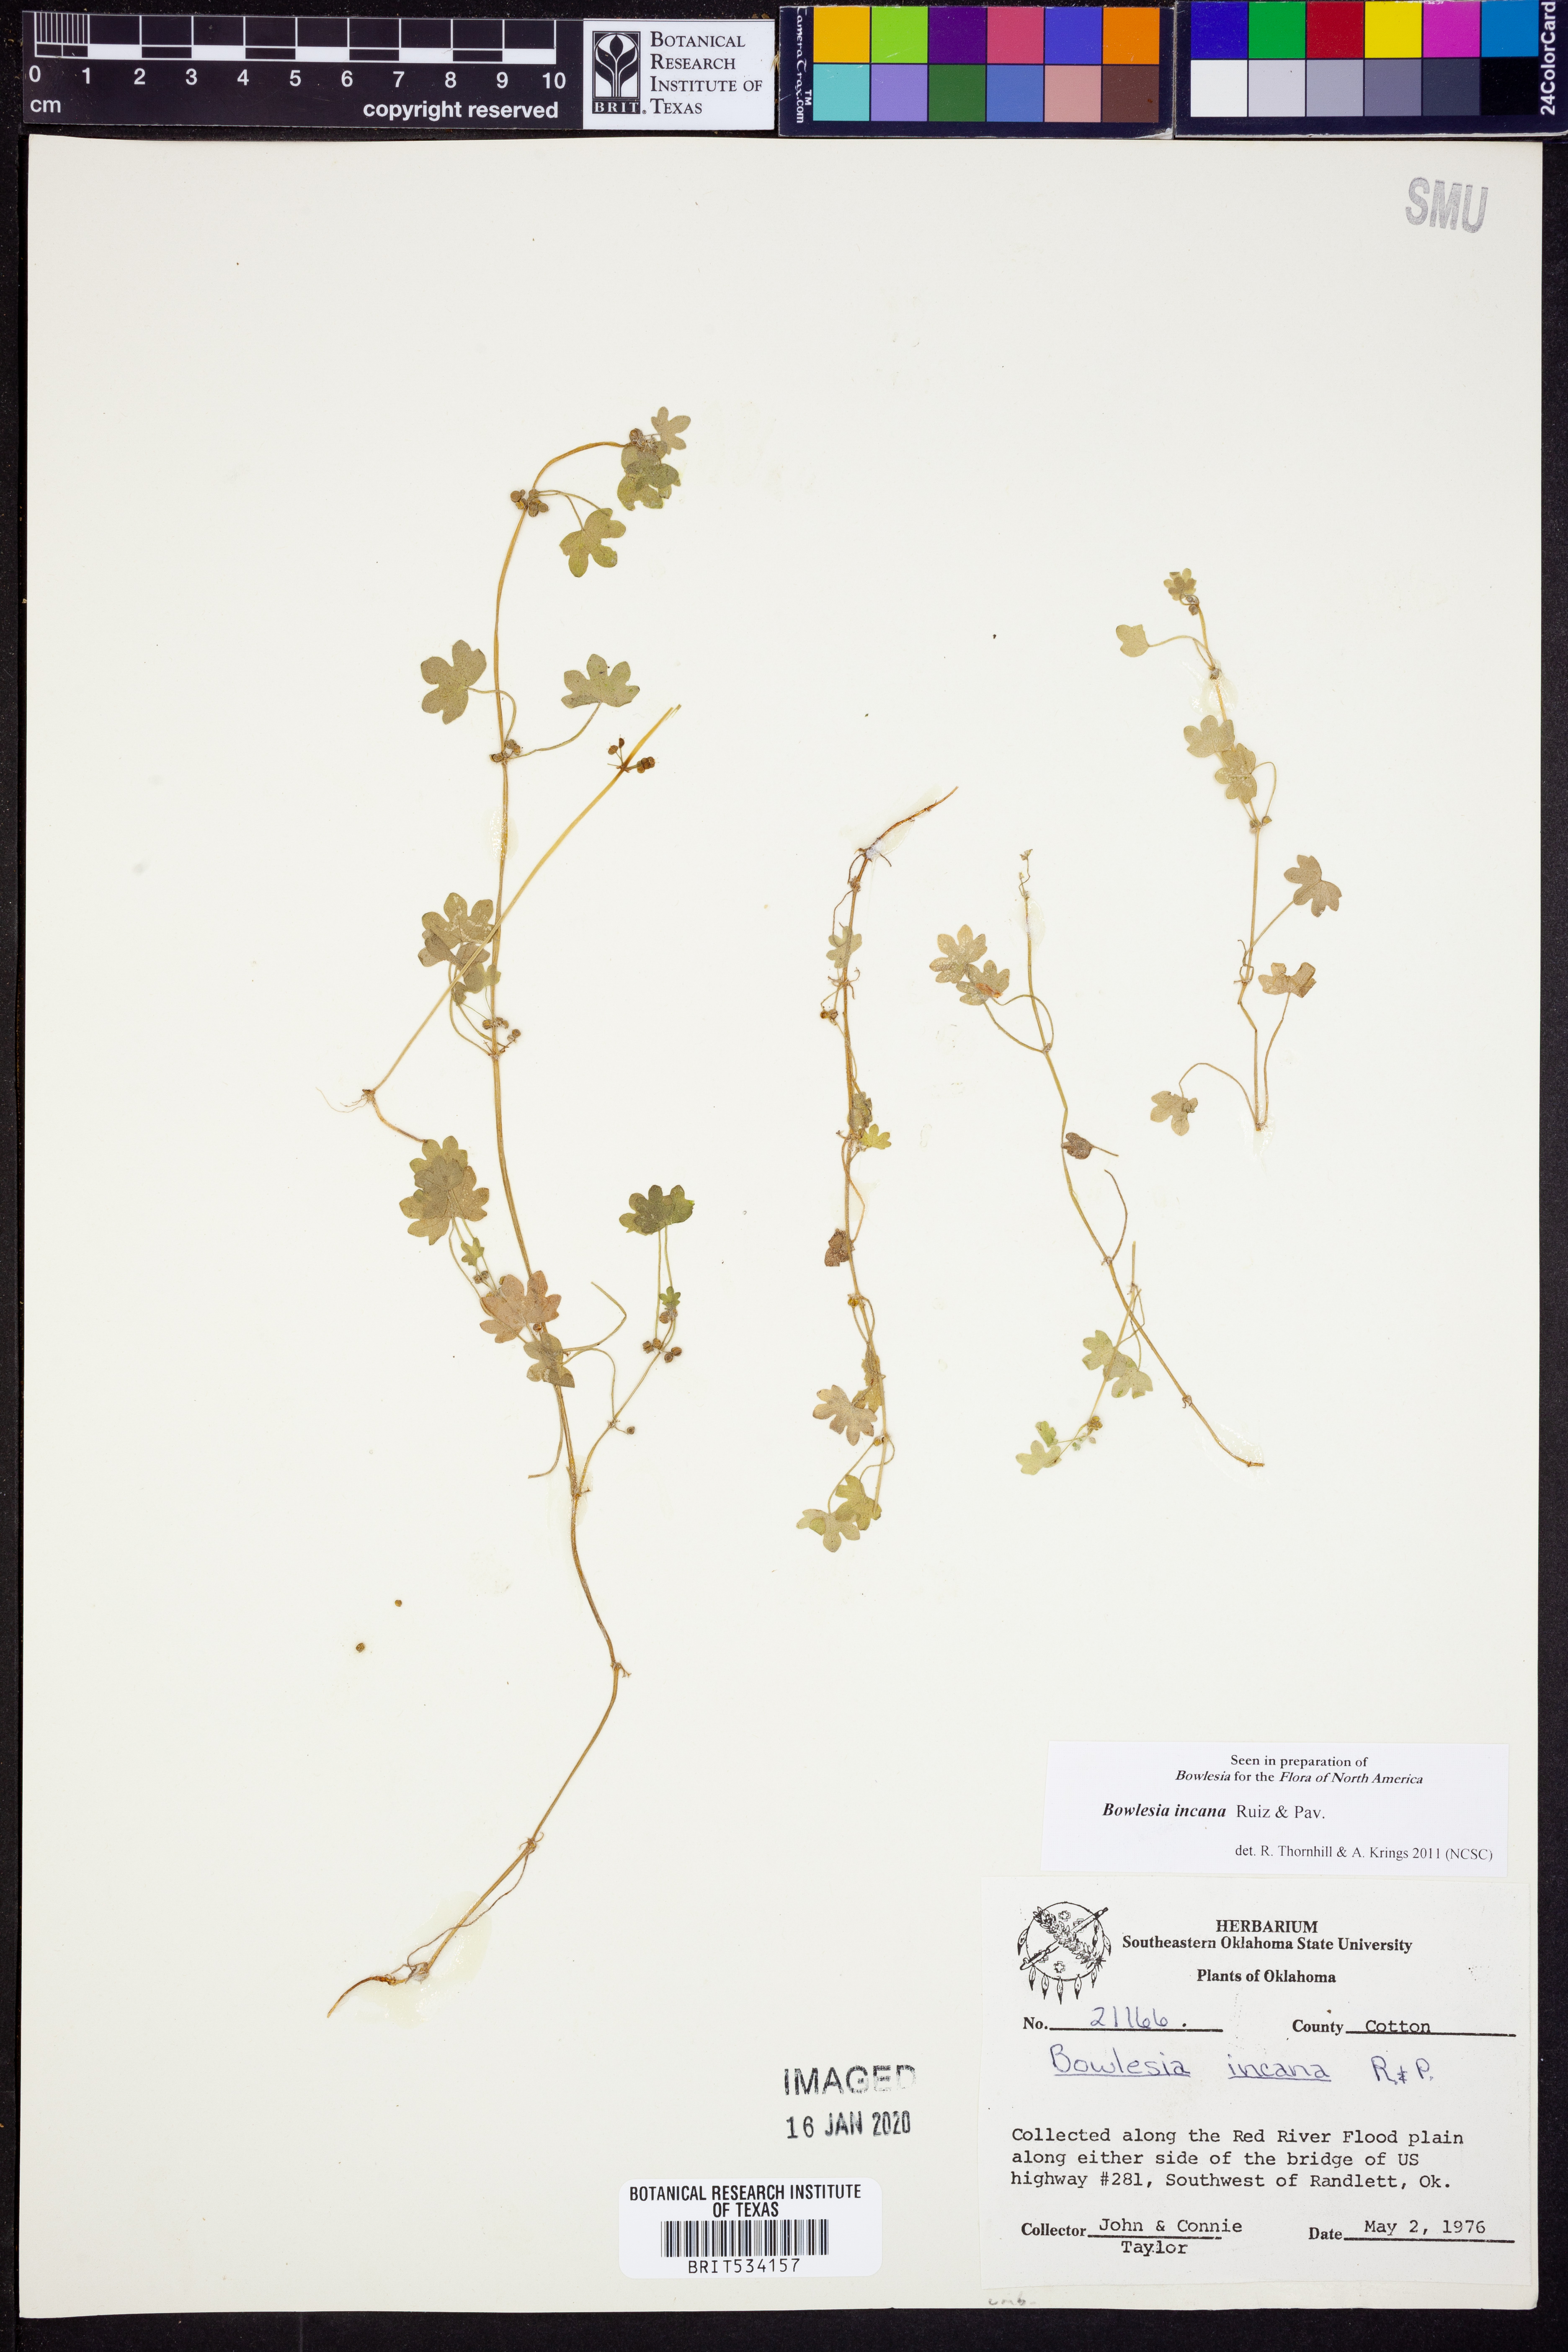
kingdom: Plantae
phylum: Tracheophyta
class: Magnoliopsida
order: Apiales
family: Apiaceae
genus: Bowlesia
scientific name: Bowlesia incana
